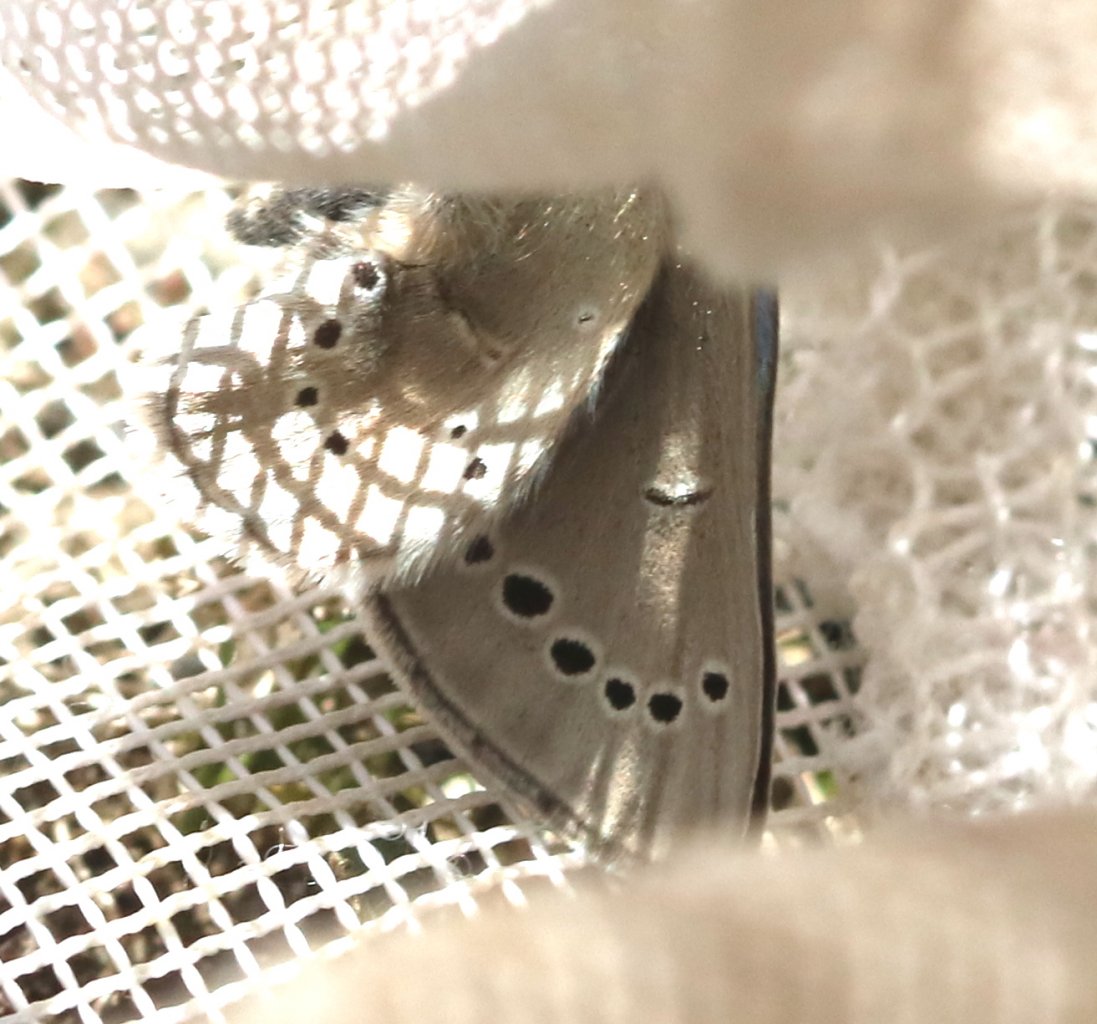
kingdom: Animalia
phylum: Arthropoda
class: Insecta
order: Lepidoptera
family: Lycaenidae
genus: Glaucopsyche
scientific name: Glaucopsyche lygdamus
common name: Silvery Blue
